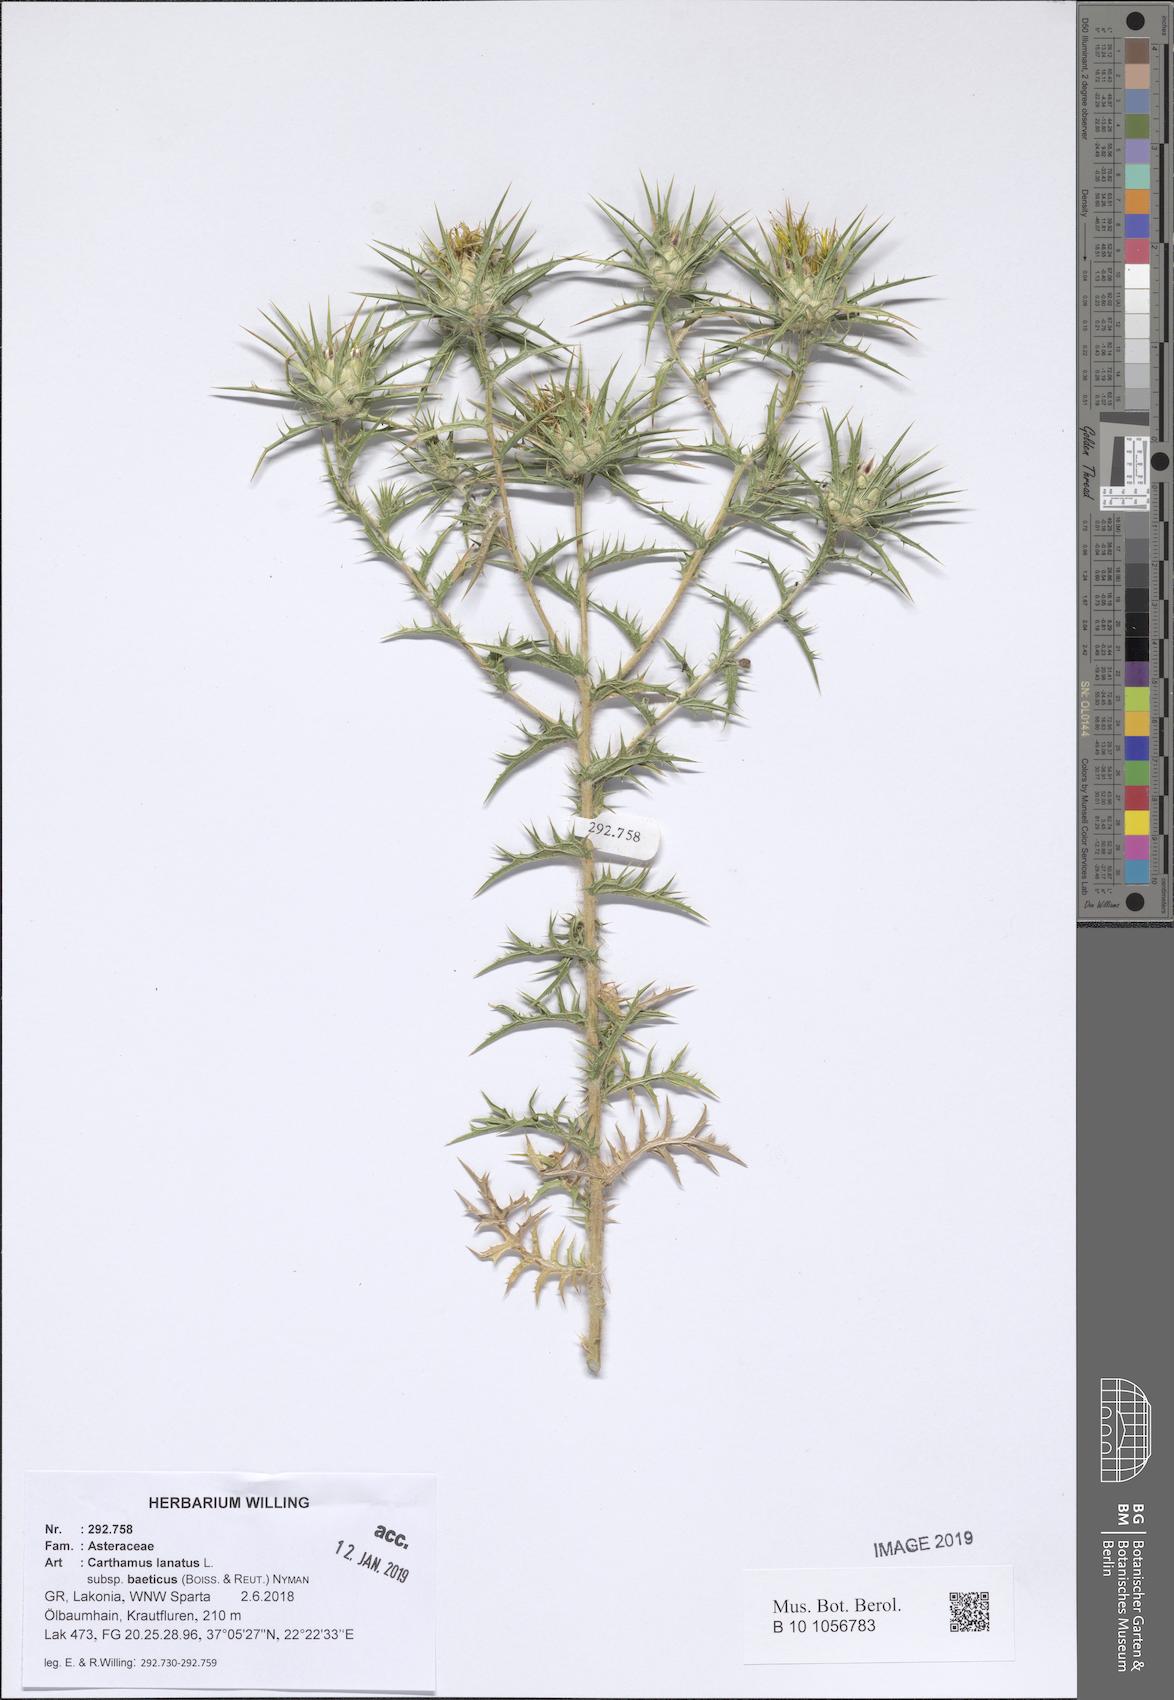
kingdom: Plantae
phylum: Tracheophyta
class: Magnoliopsida
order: Asterales
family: Asteraceae
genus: Carthamus
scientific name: Carthamus creticus
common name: Smooth distaff thistle
